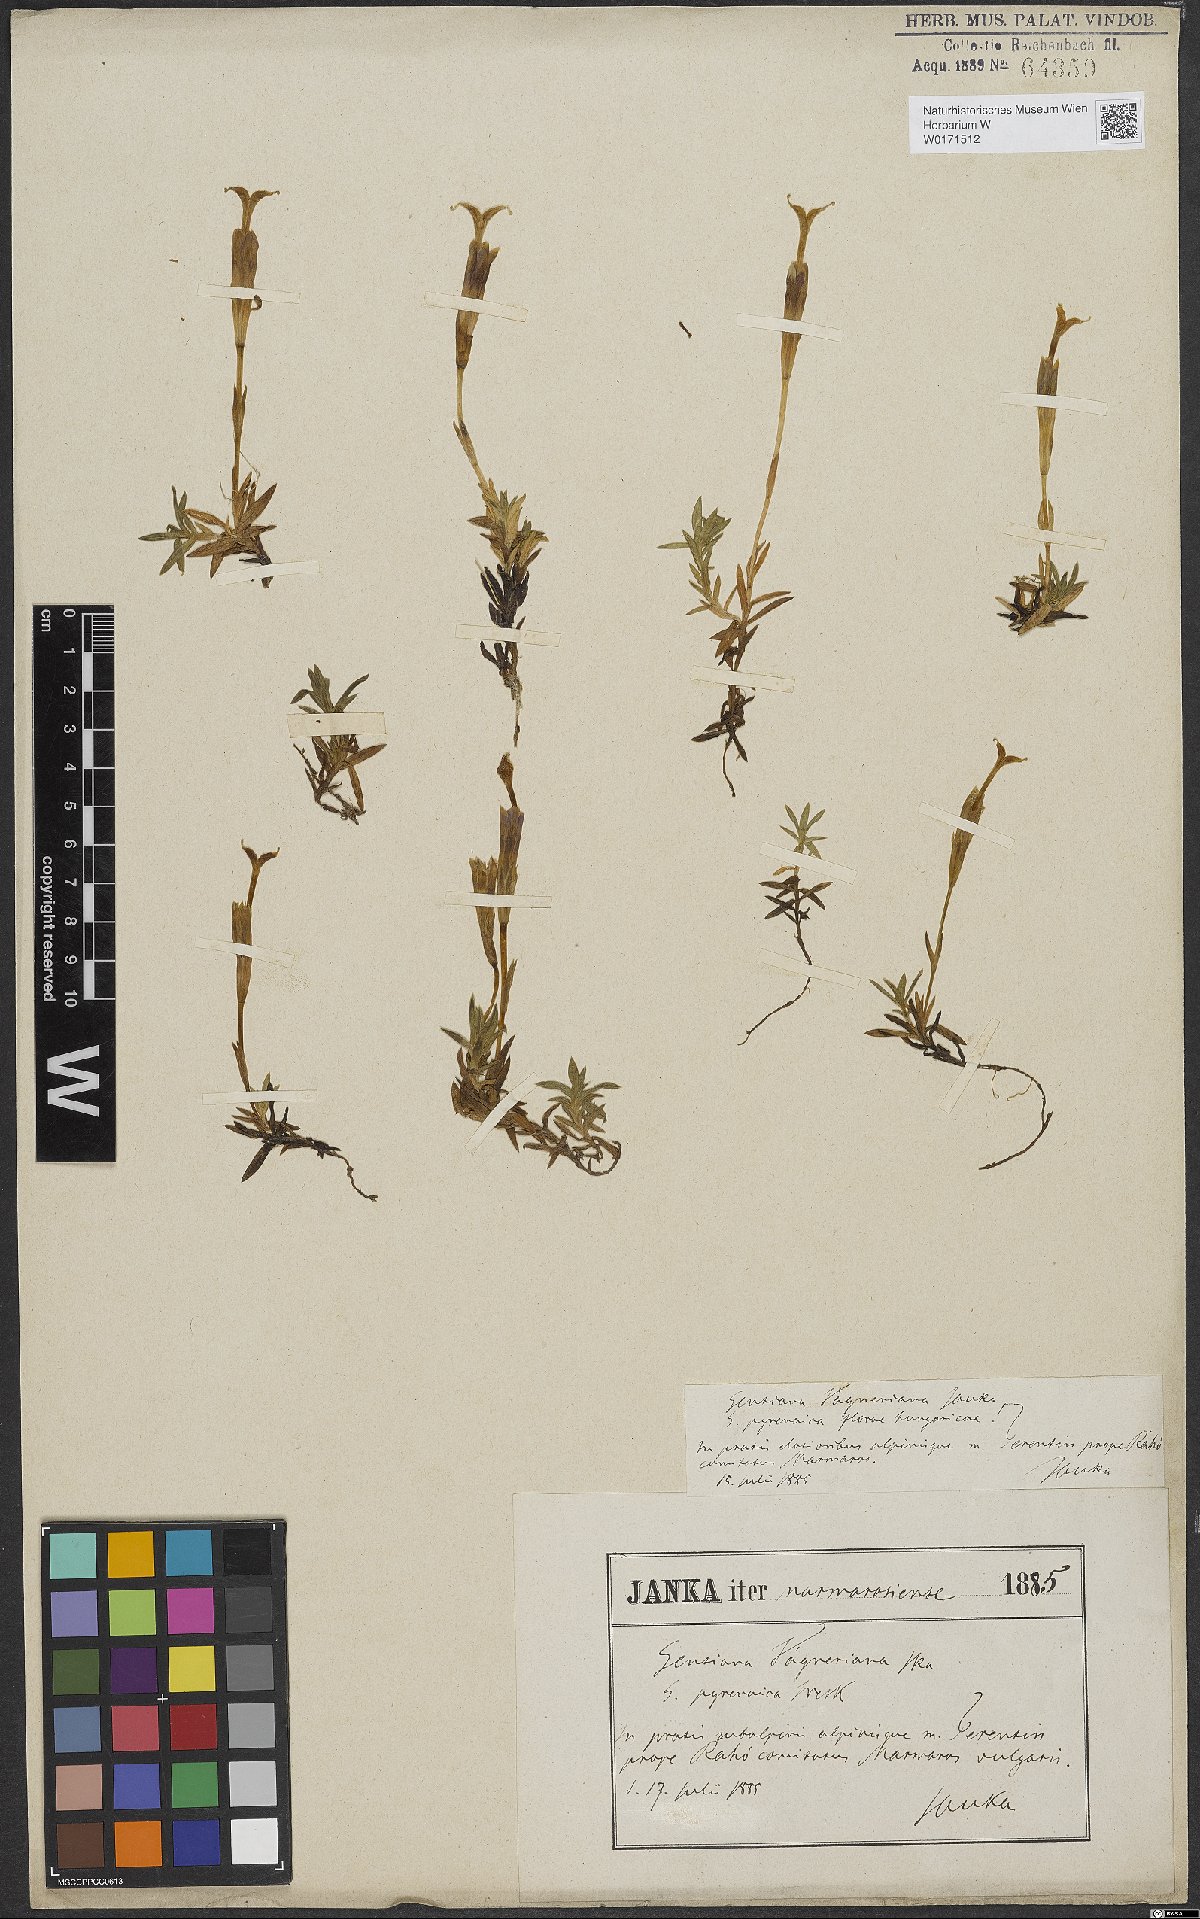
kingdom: Plantae
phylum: Tracheophyta
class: Magnoliopsida
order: Gentianales
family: Gentianaceae
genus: Gentiana
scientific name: Gentiana pyrenaica
